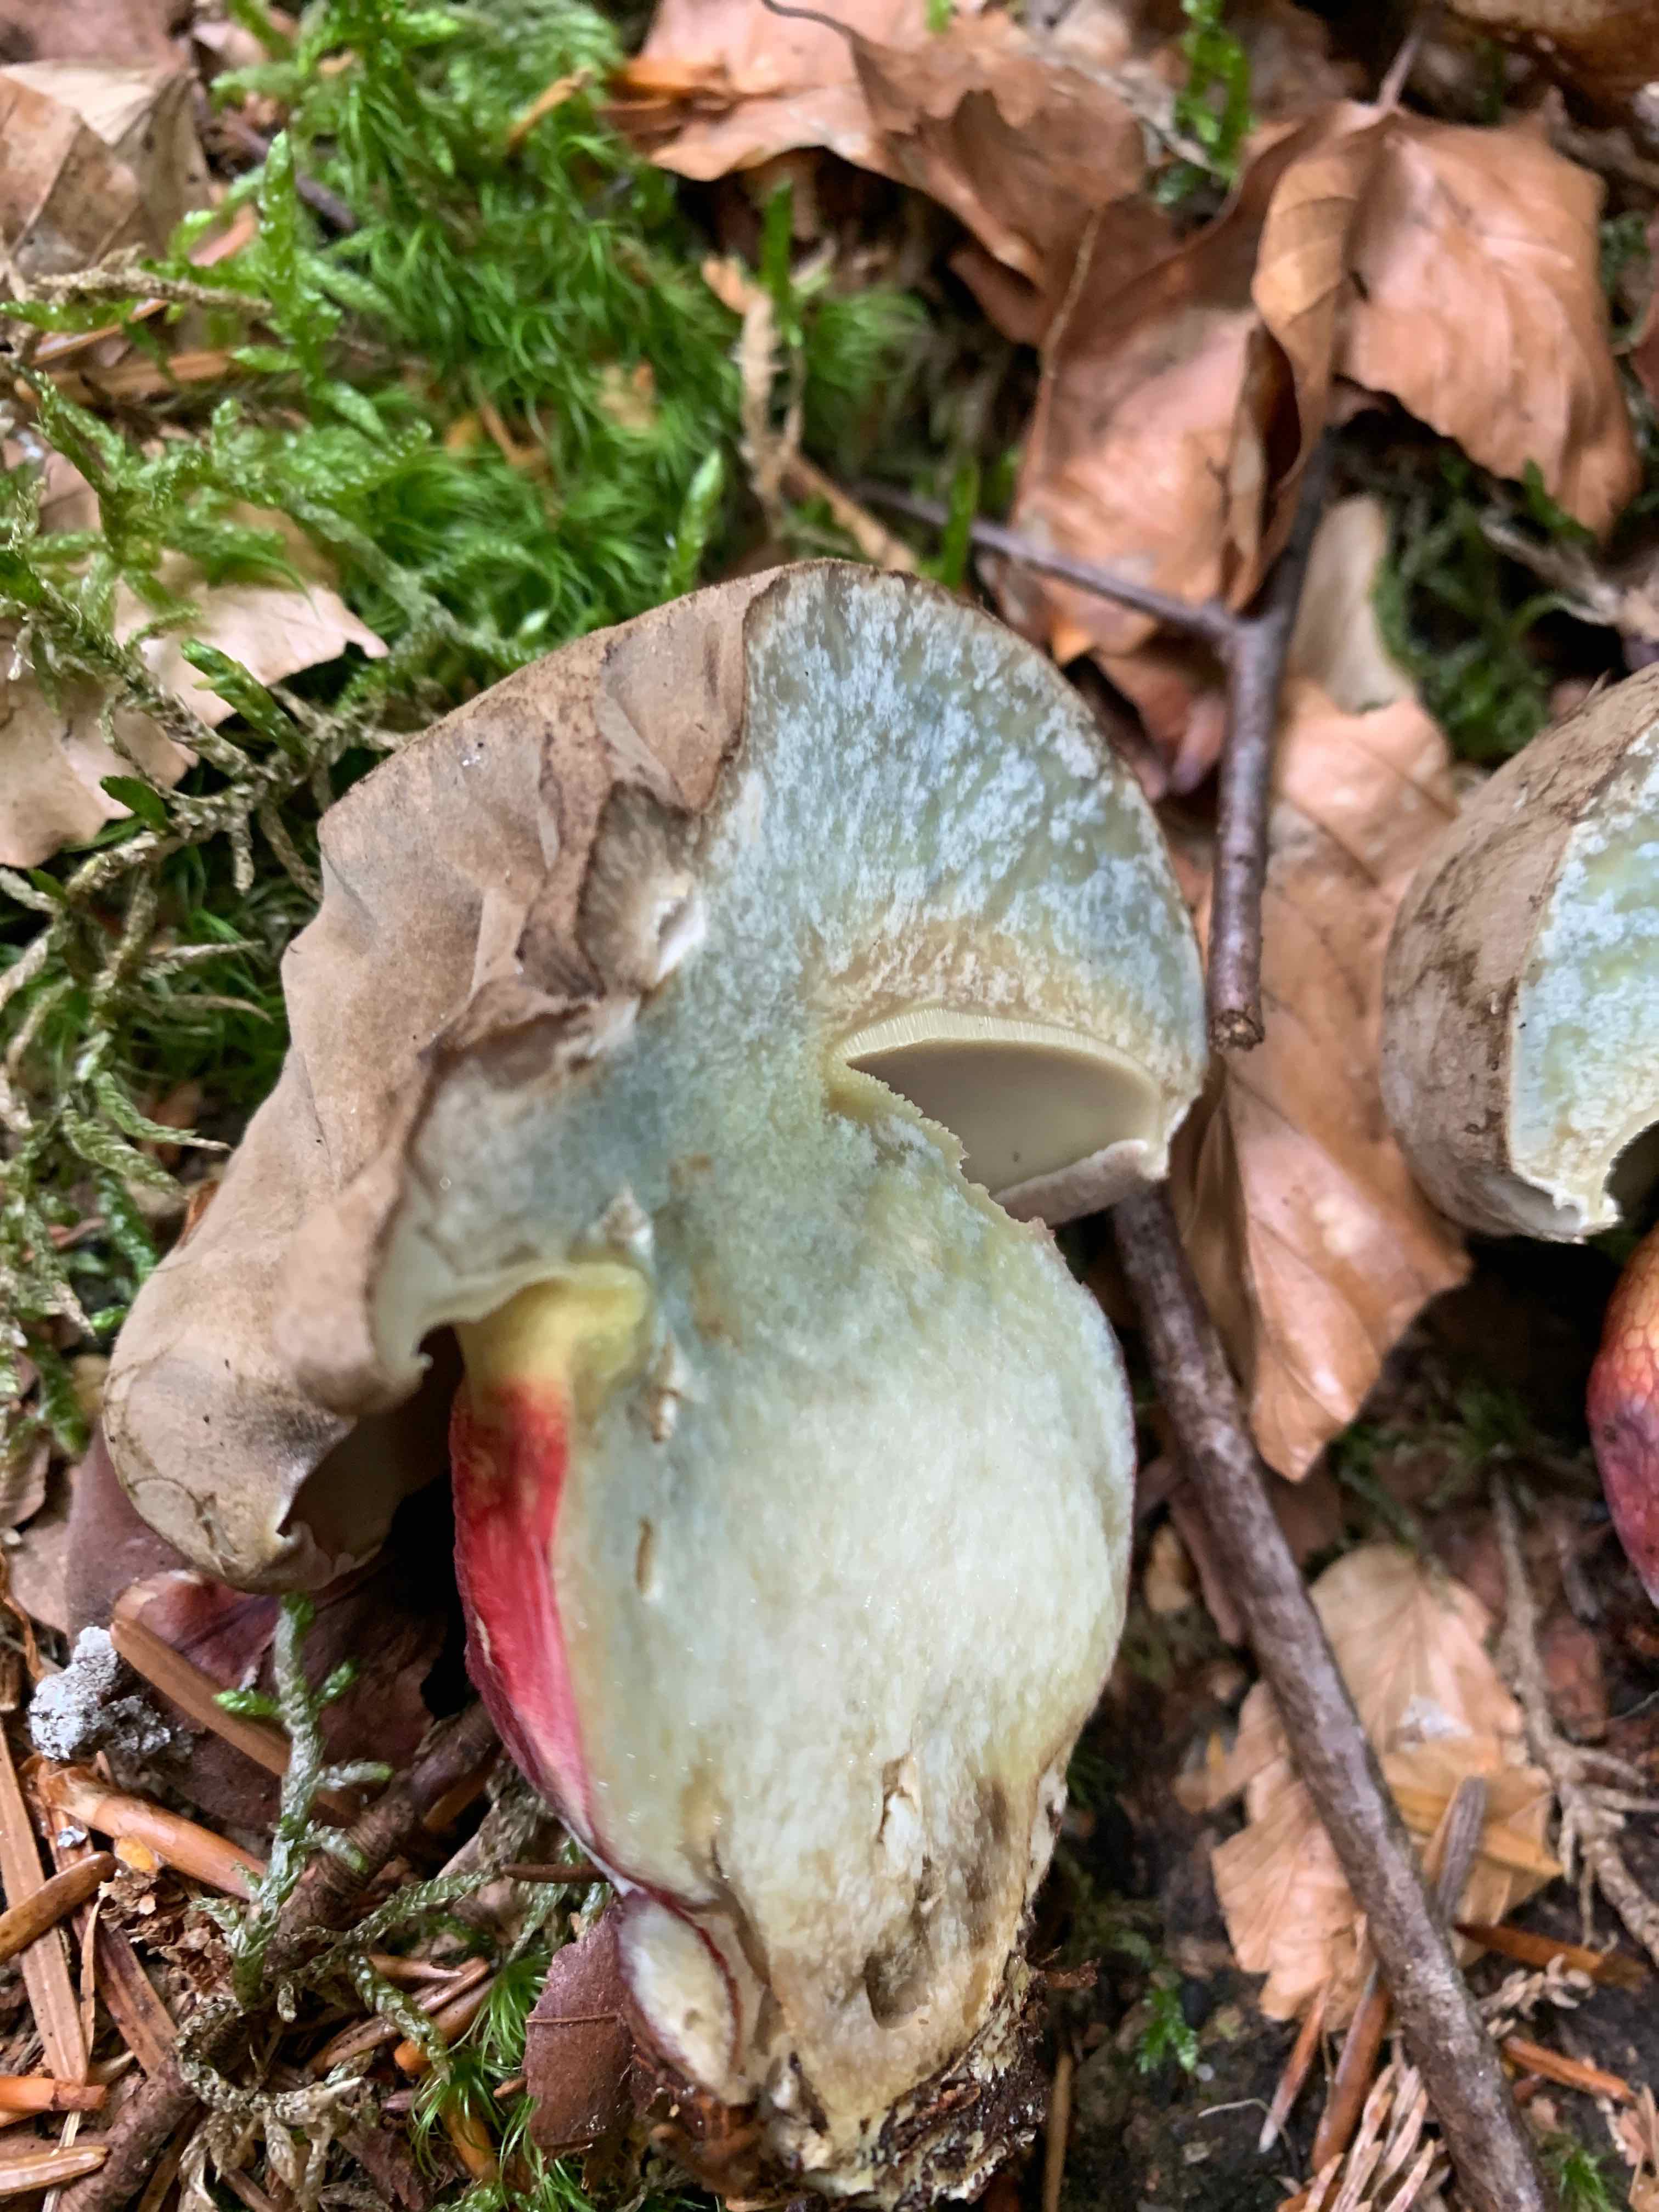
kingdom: Fungi
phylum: Basidiomycota
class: Agaricomycetes
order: Boletales
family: Boletaceae
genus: Caloboletus
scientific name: Caloboletus calopus
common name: skønfodet rørhat
